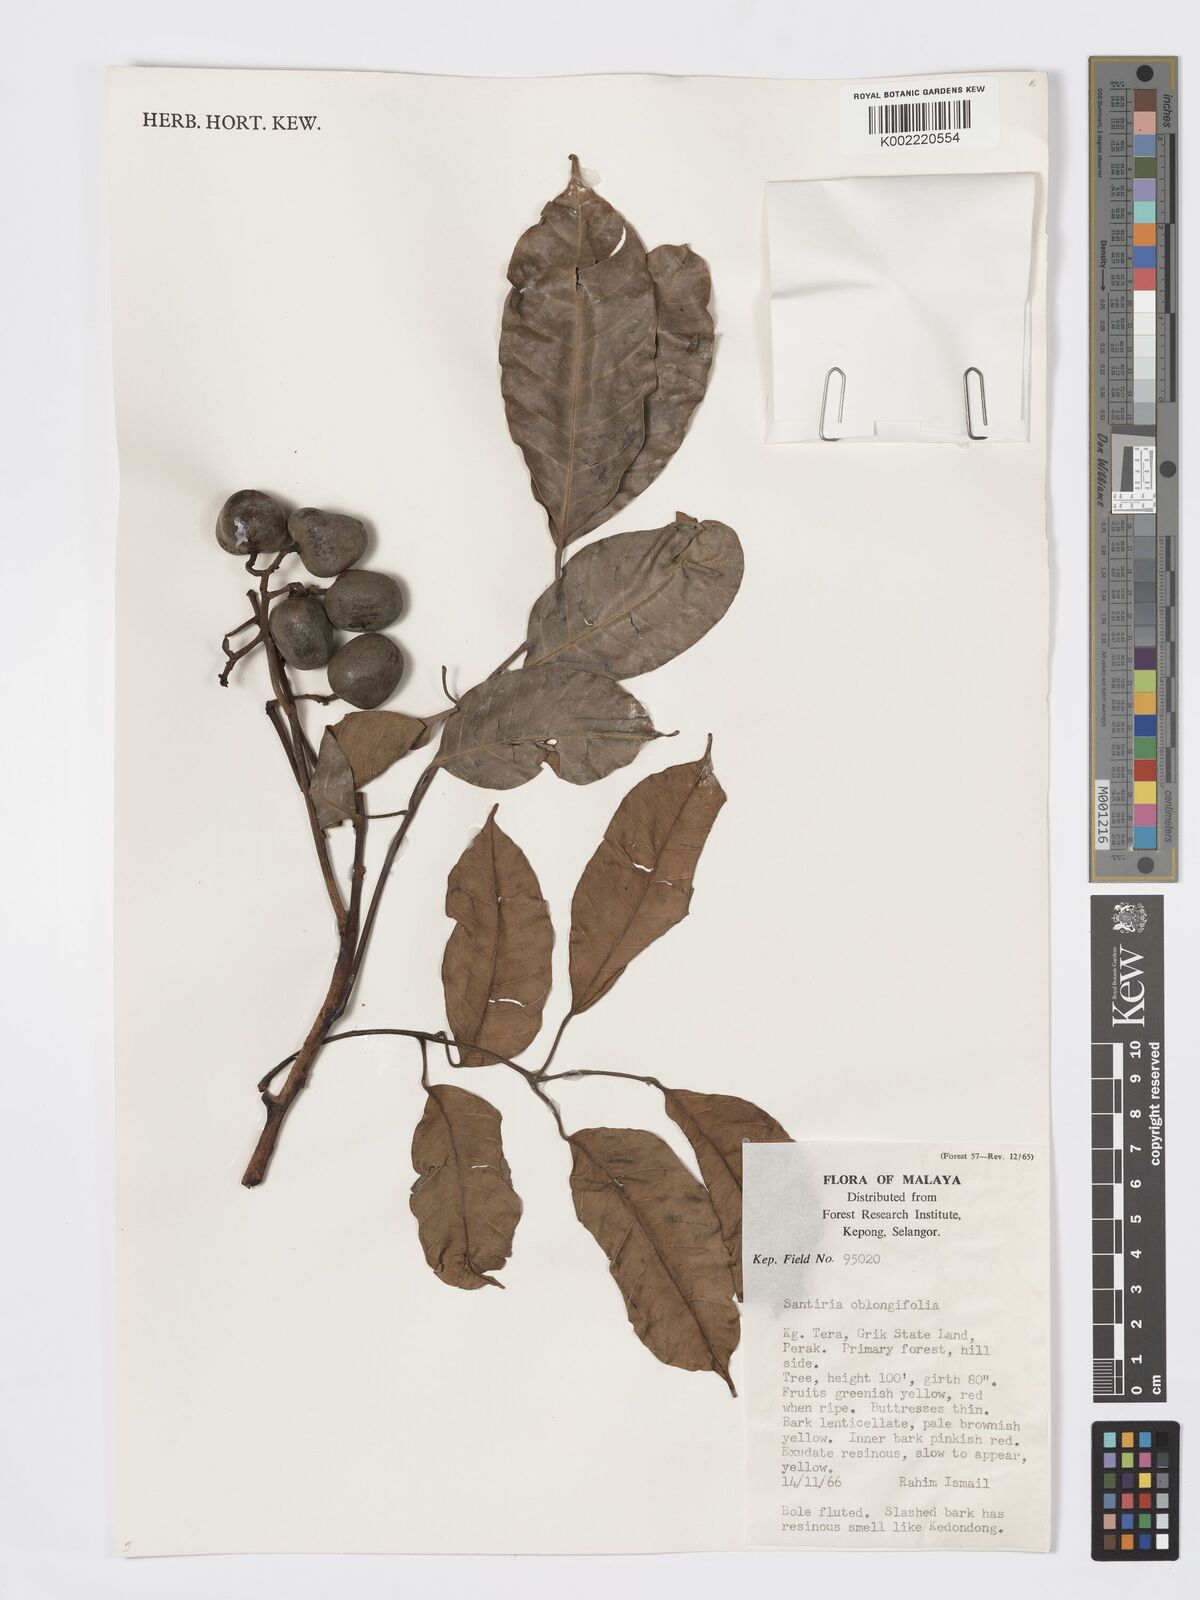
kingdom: Plantae
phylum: Tracheophyta
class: Magnoliopsida
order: Sapindales
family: Burseraceae
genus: Santiria
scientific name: Santiria oblongifolia
